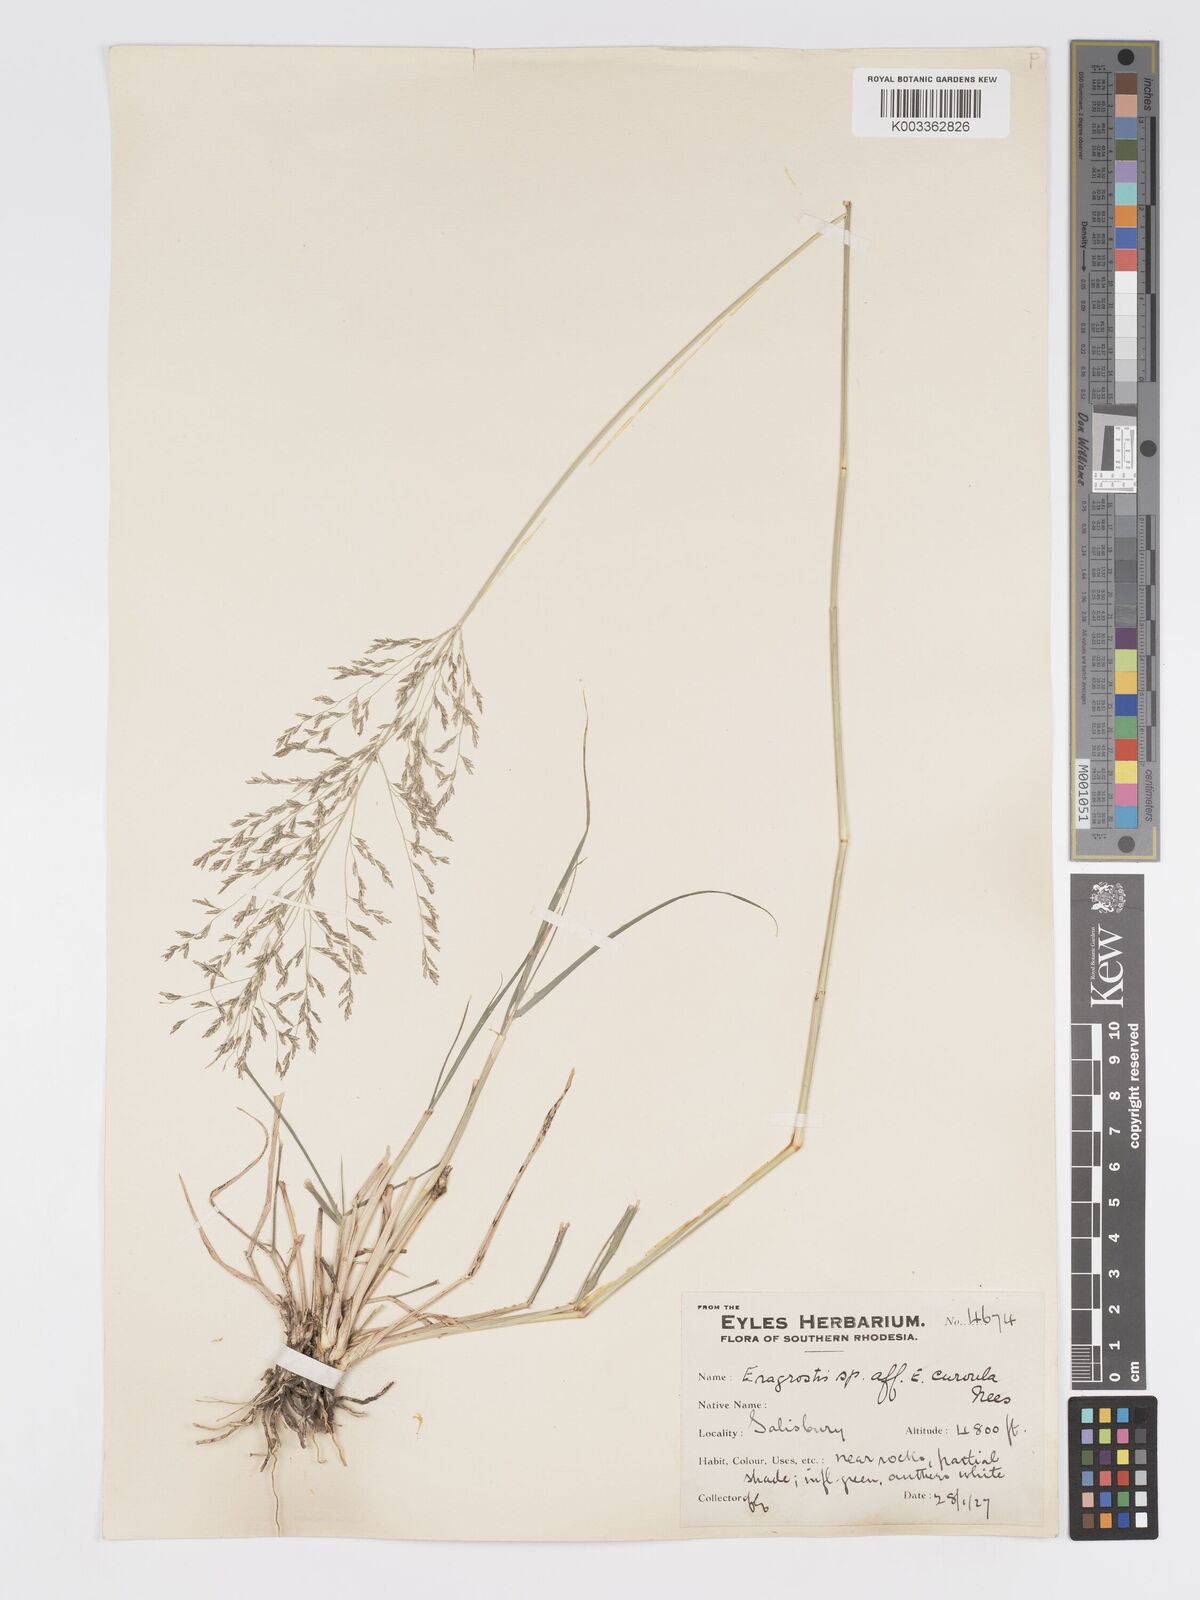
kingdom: Plantae
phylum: Tracheophyta
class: Liliopsida
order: Poales
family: Poaceae
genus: Eragrostis
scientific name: Eragrostis cylindriflora
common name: Cylinderflower lovegrass
